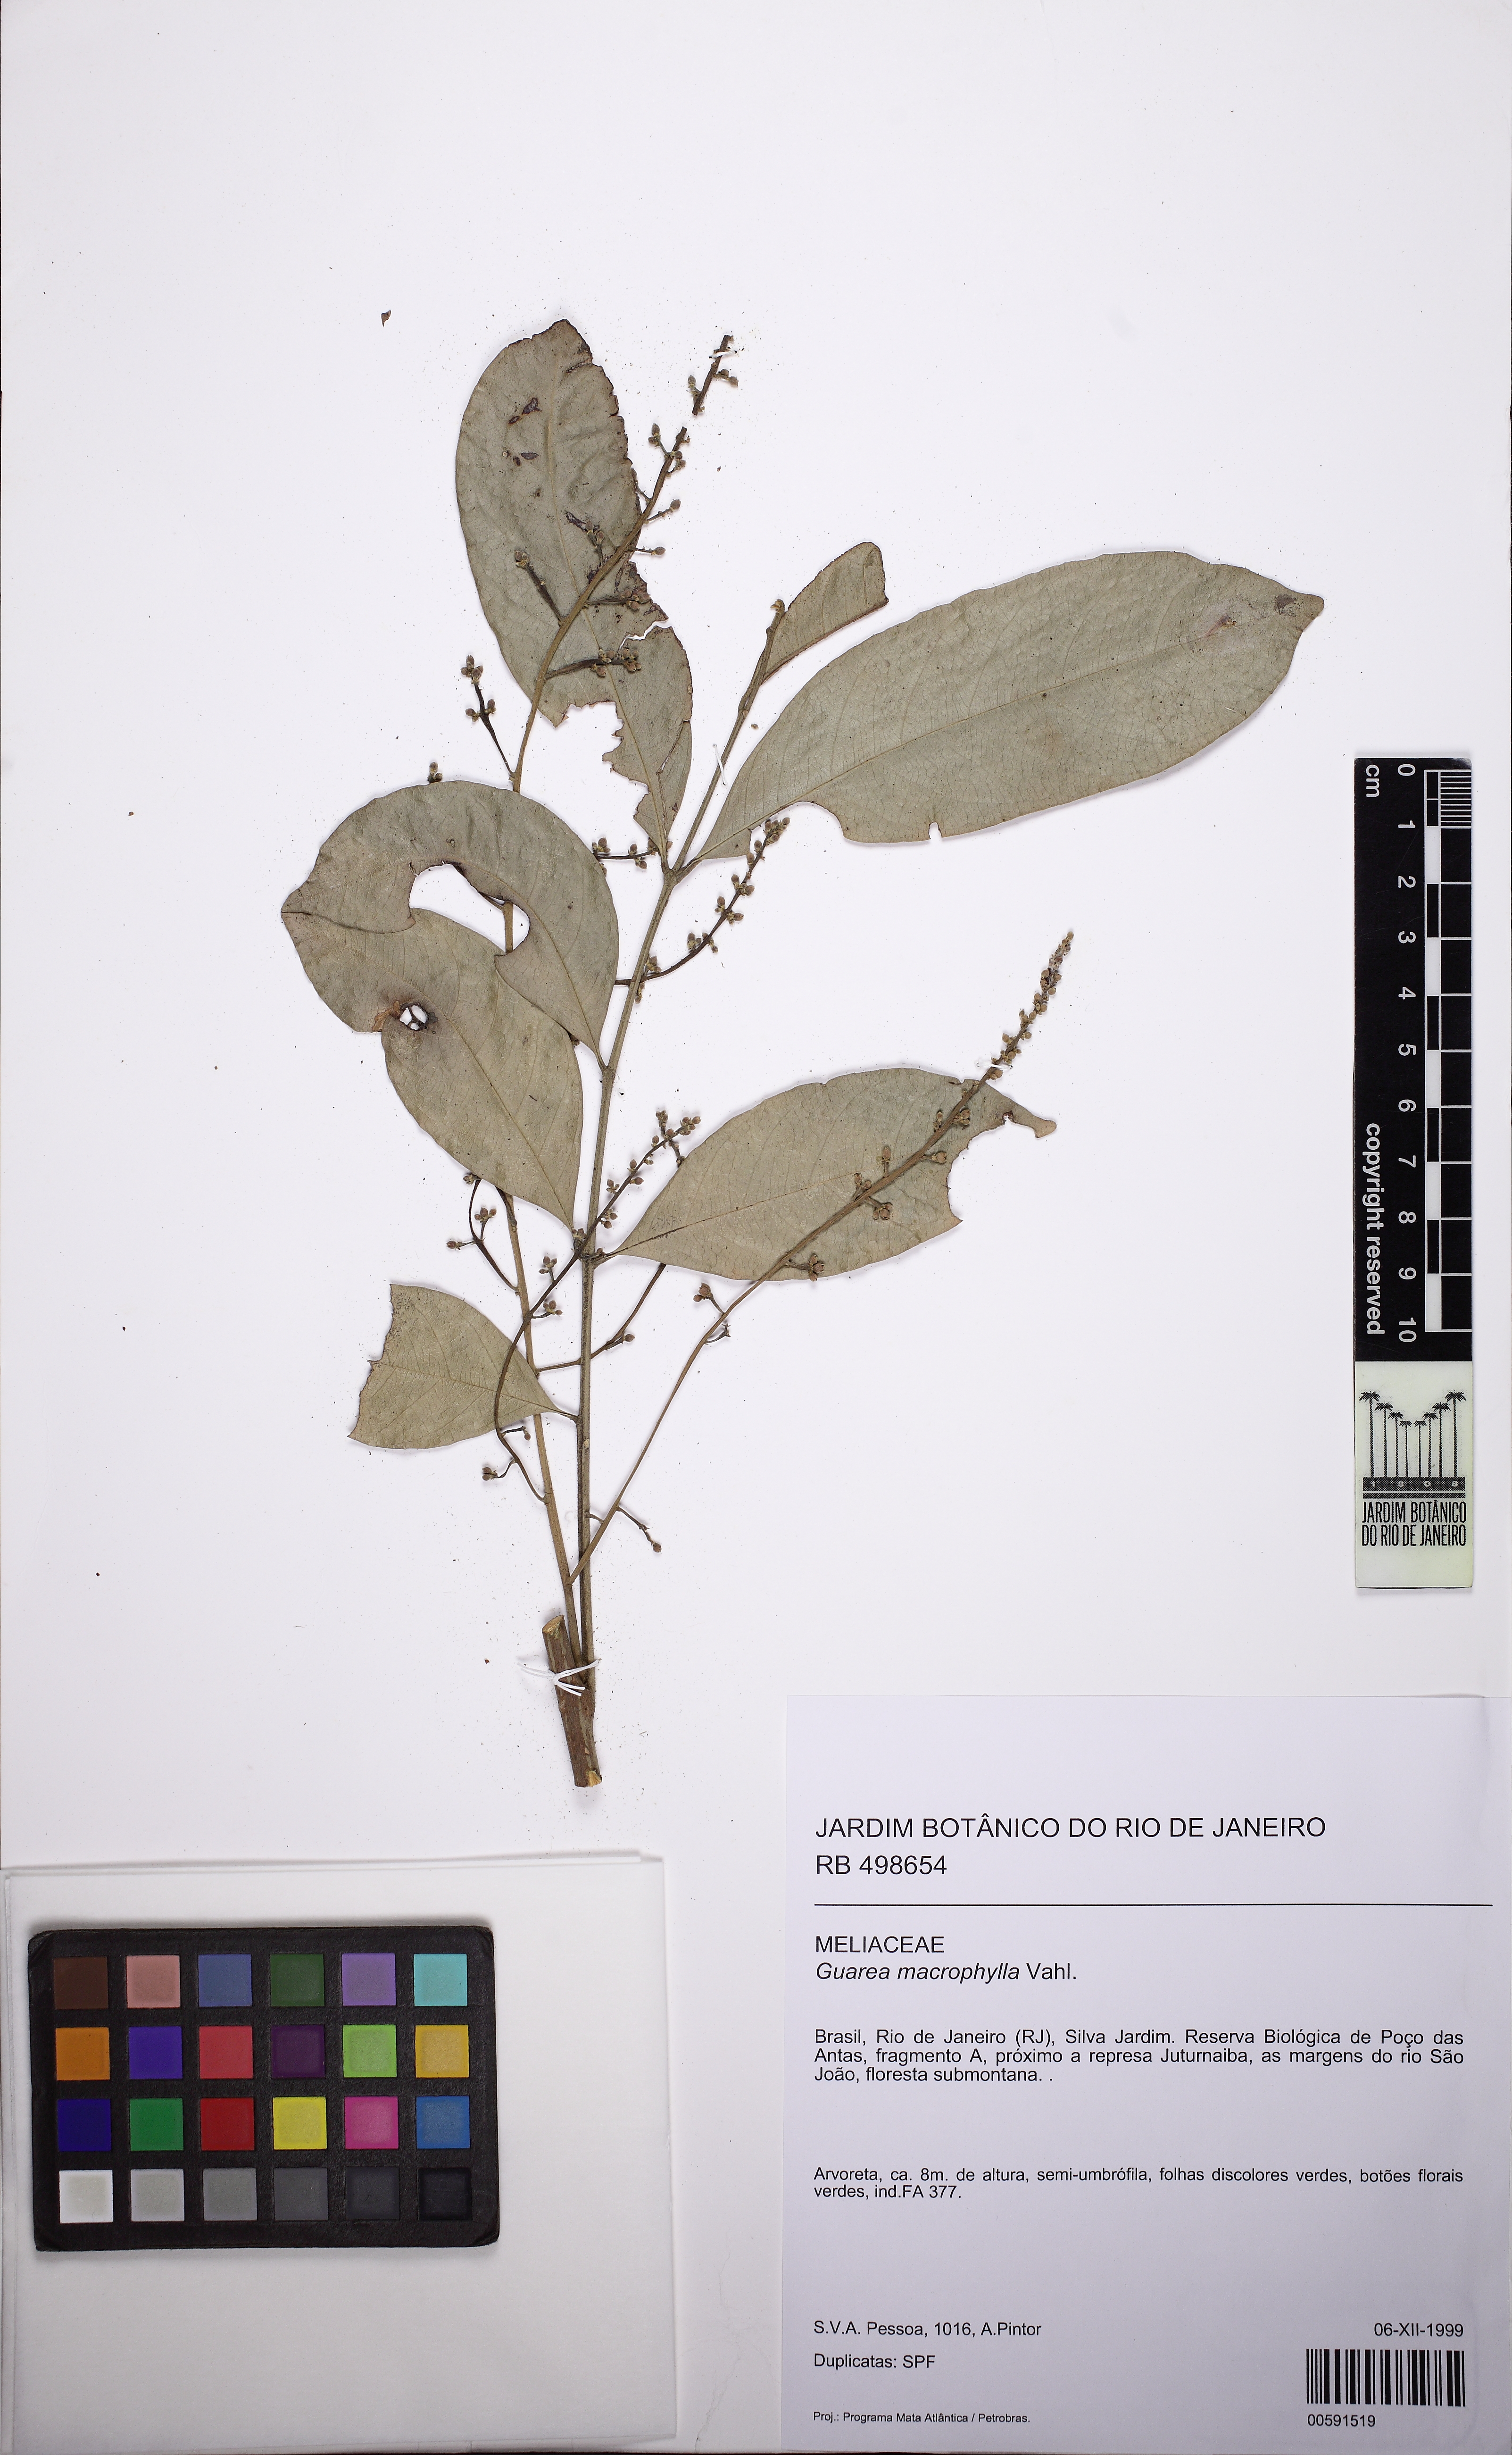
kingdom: Plantae
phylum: Tracheophyta
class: Magnoliopsida
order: Sapindales
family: Meliaceae
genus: Guarea
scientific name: Guarea macrophylla
